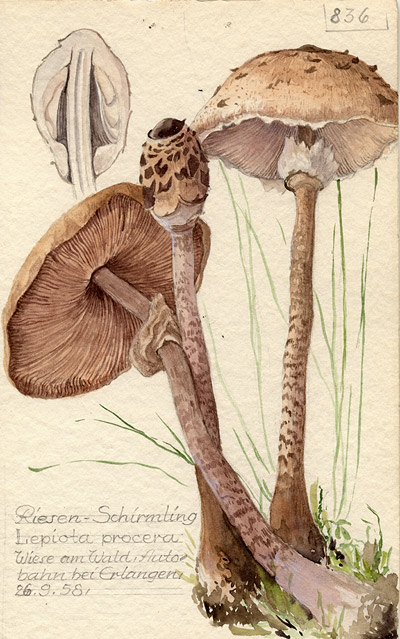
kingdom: Fungi
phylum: Basidiomycota
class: Agaricomycetes
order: Agaricales
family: Agaricaceae
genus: Macrolepiota
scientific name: Macrolepiota procera
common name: Parasol
